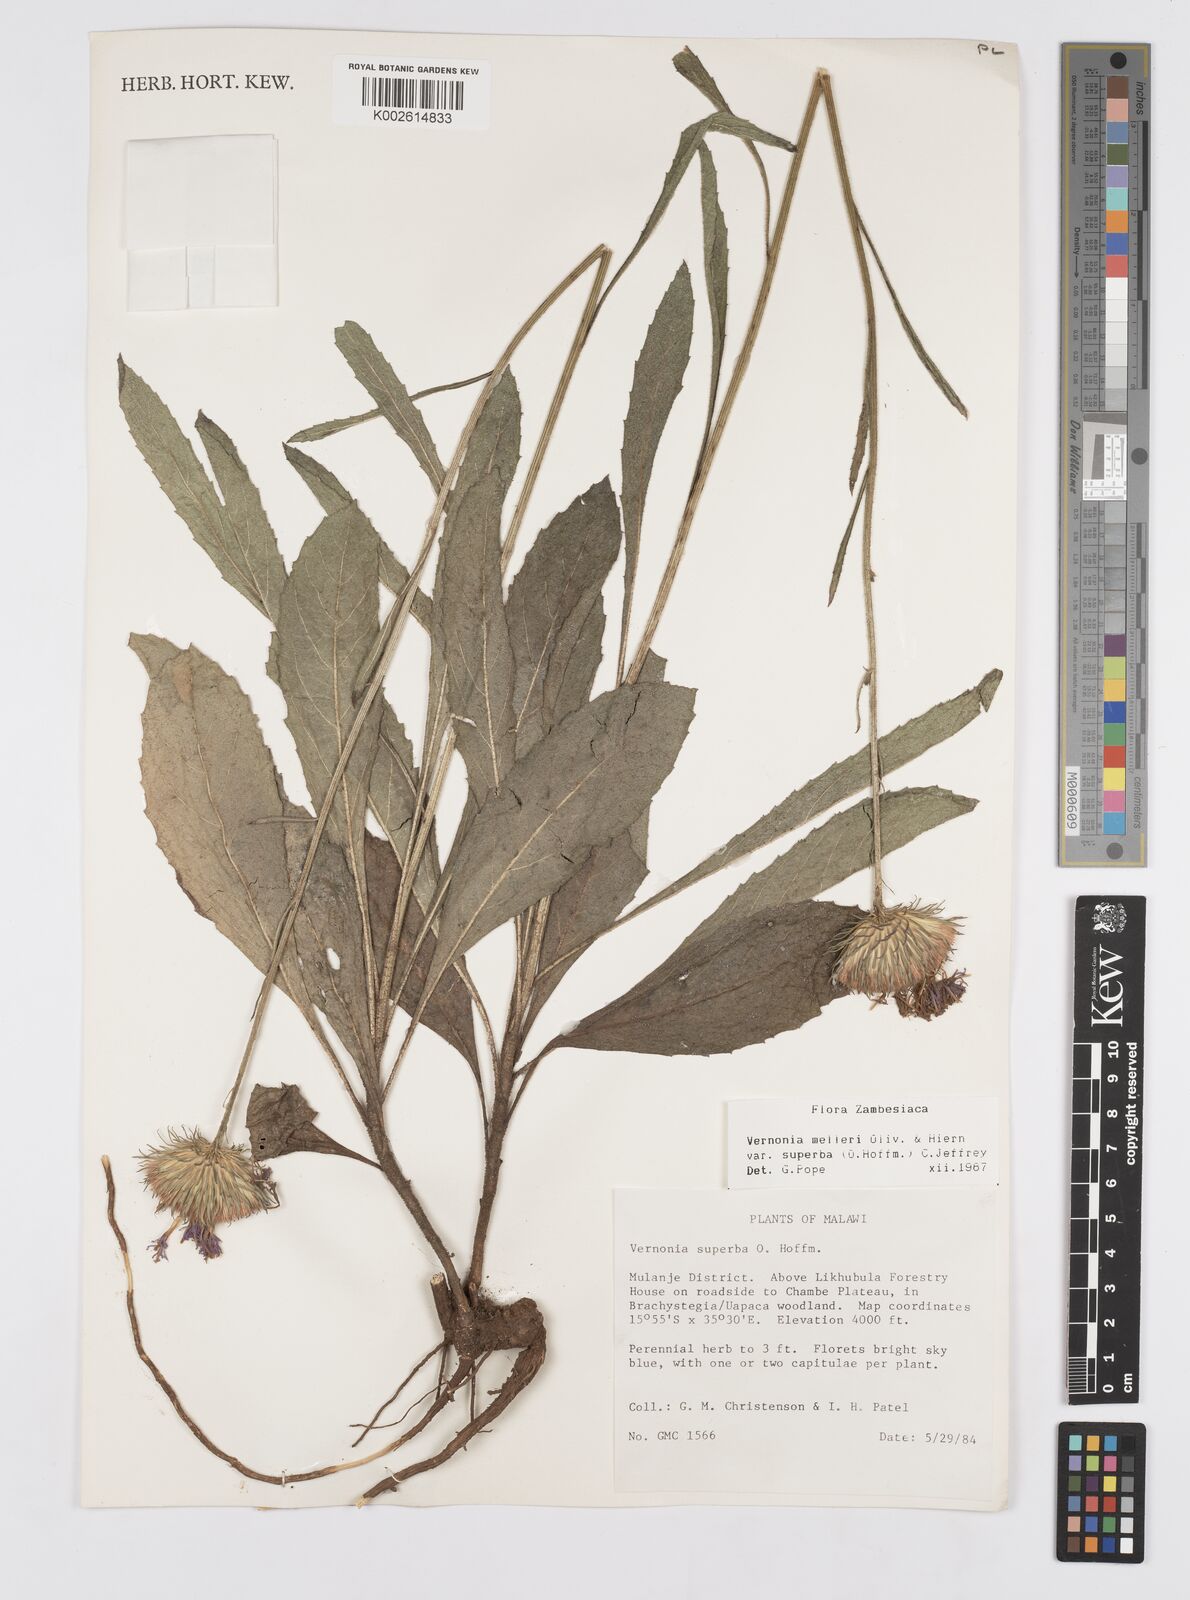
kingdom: Plantae
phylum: Tracheophyta
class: Magnoliopsida
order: Asterales
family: Asteraceae
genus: Linzia
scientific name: Linzia melleri
